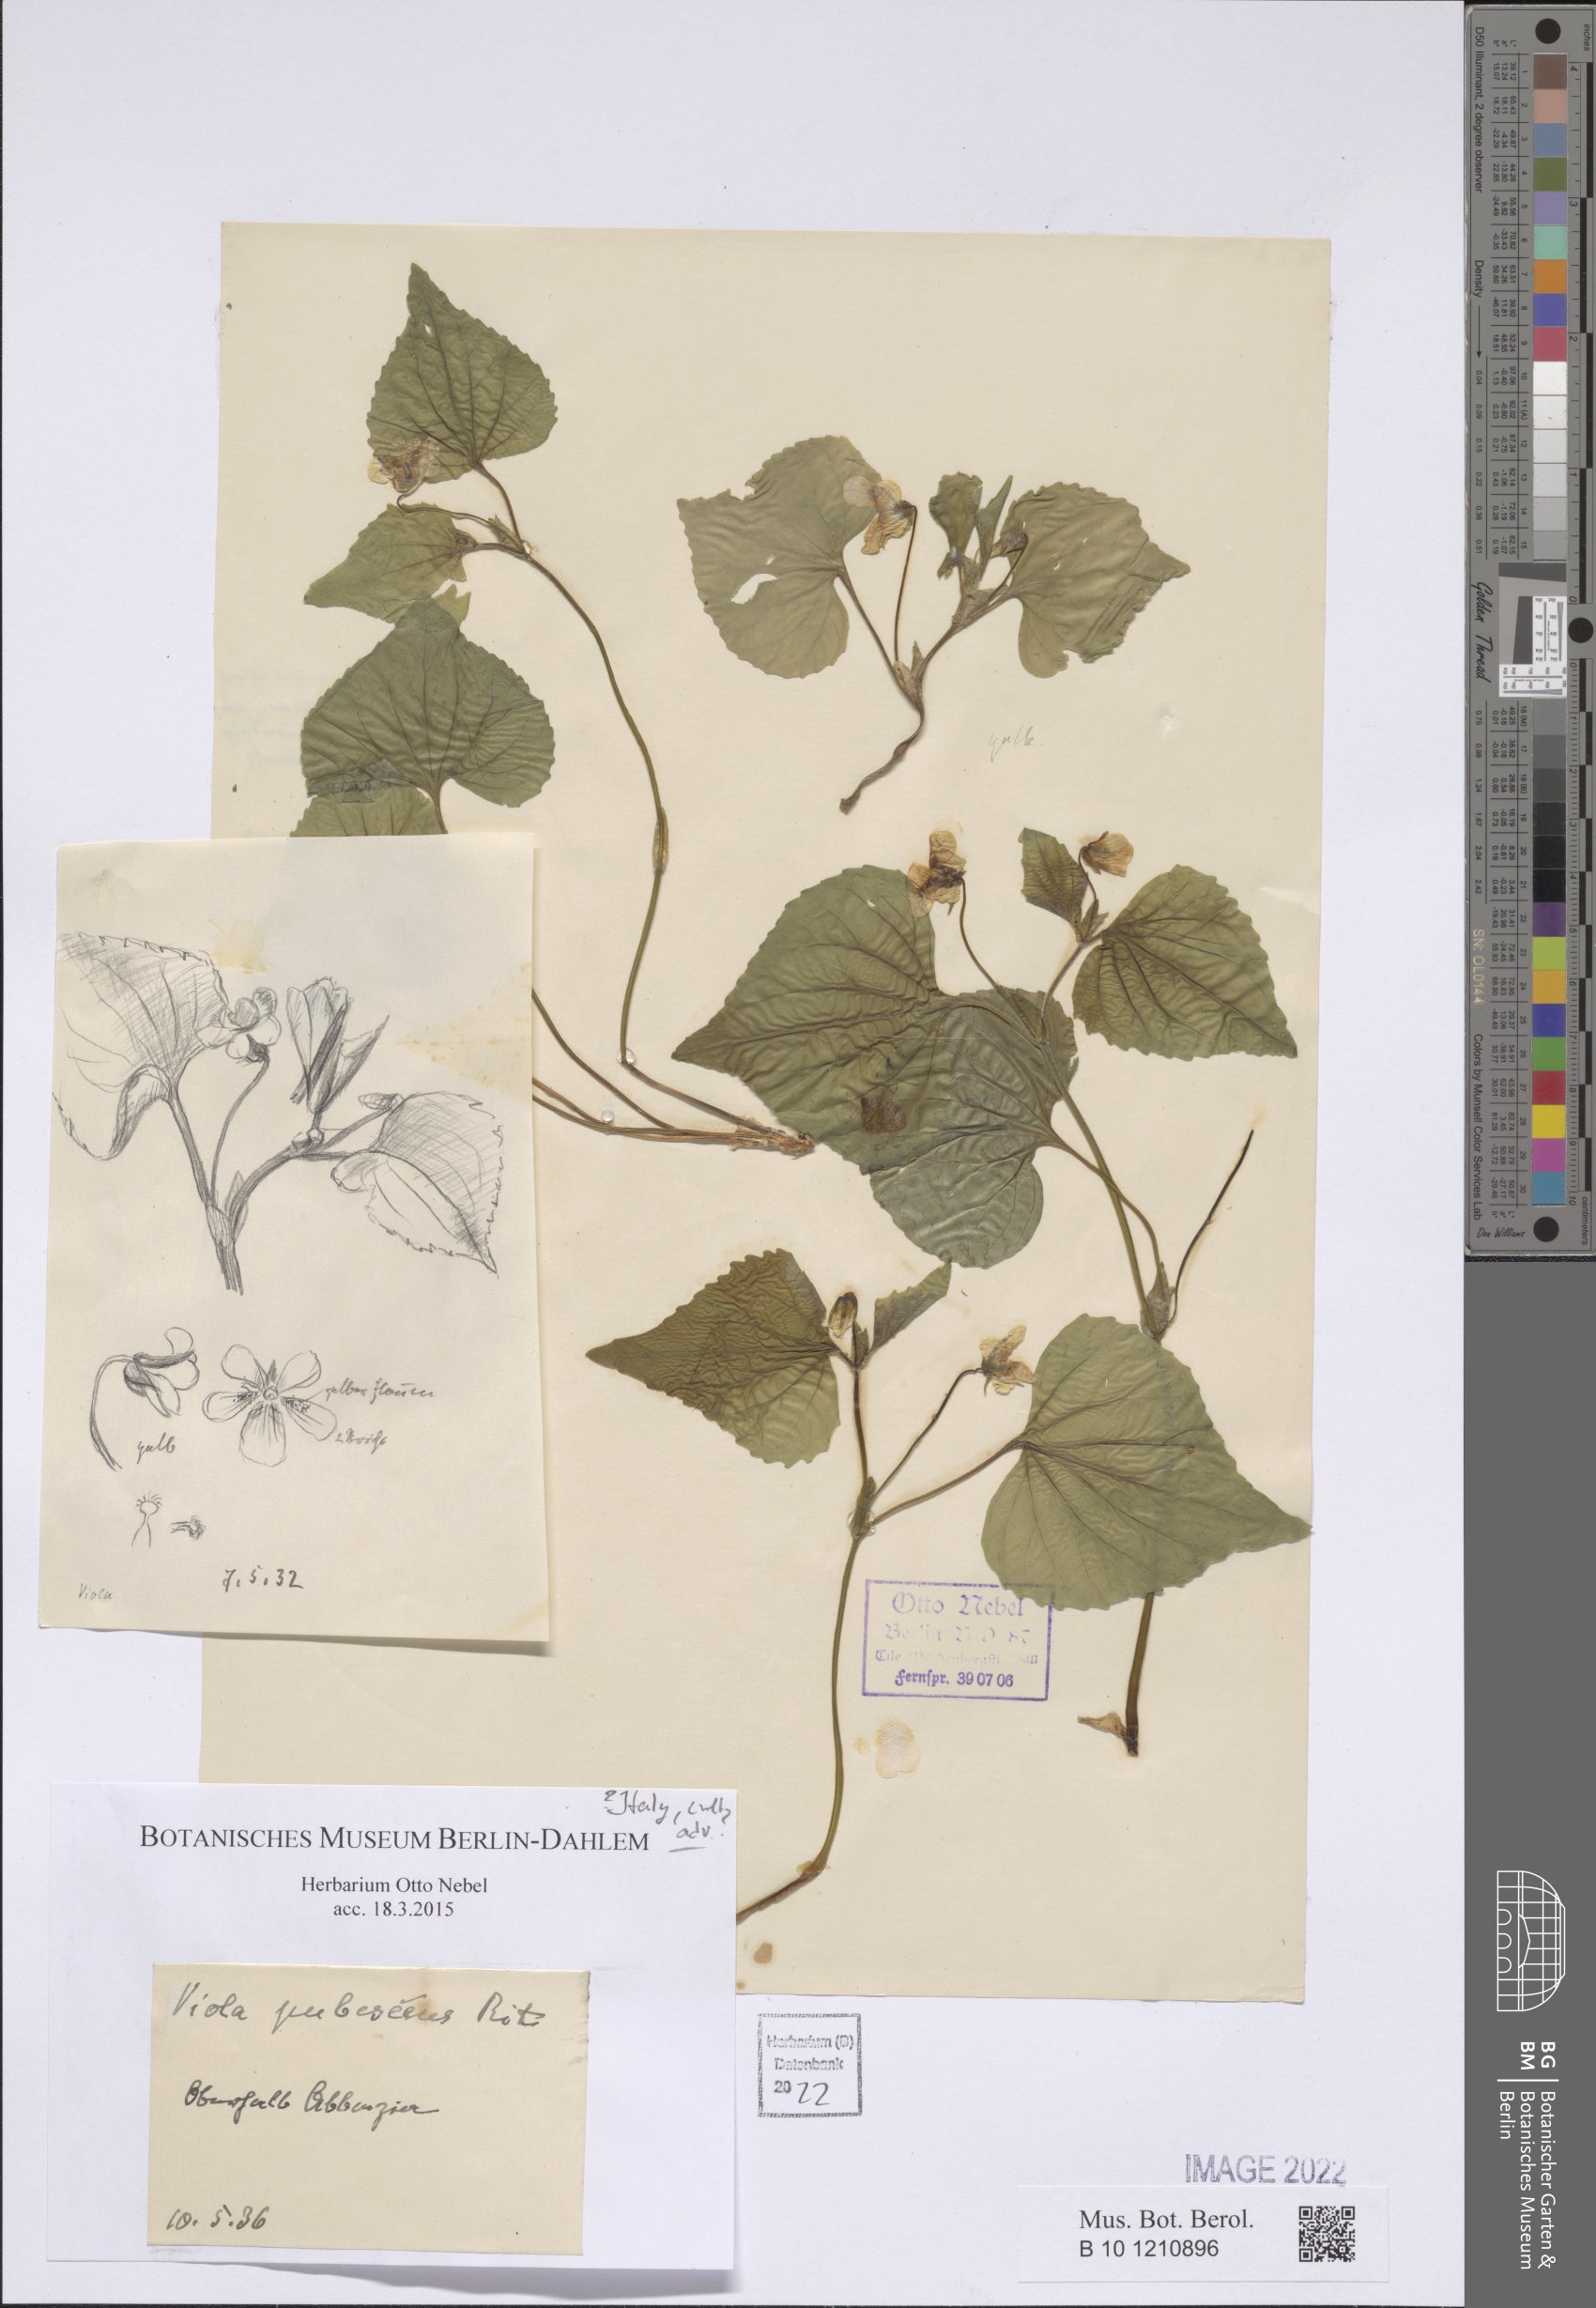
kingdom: Plantae
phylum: Tracheophyta
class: Magnoliopsida
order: Malpighiales
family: Violaceae
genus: Viola
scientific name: Viola pubescens
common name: Yellow forest violet
